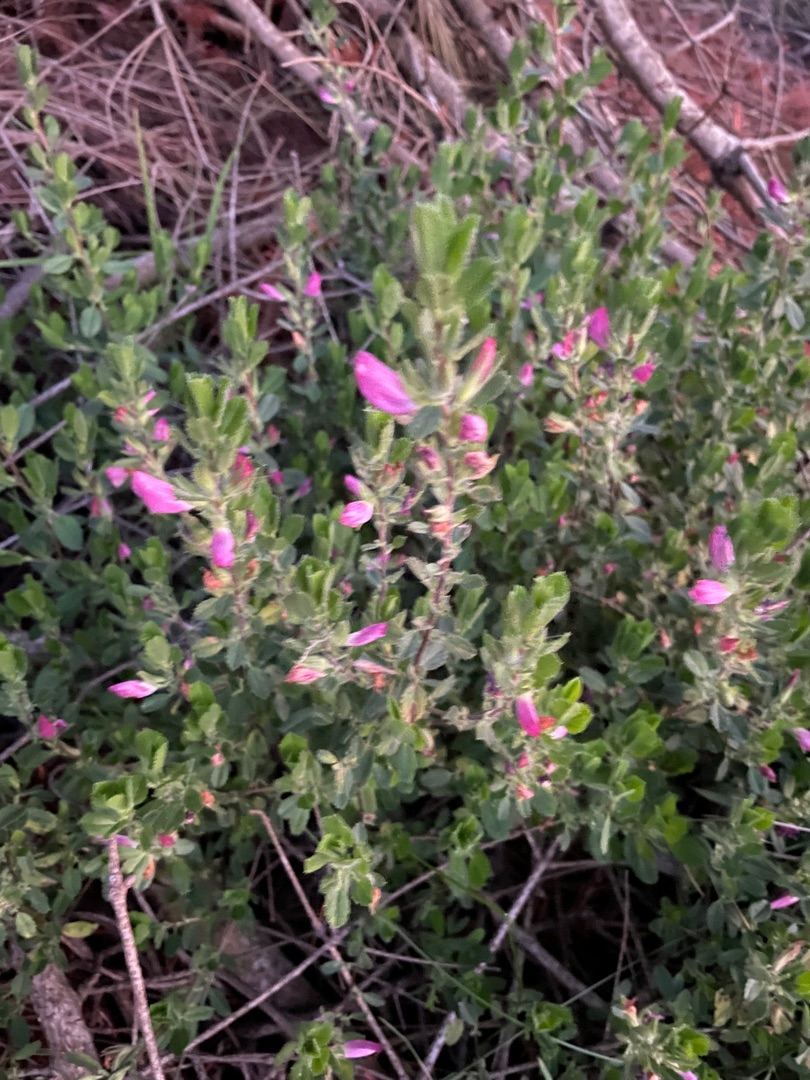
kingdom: Plantae
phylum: Tracheophyta
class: Magnoliopsida
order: Fabales
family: Fabaceae
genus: Ononis
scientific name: Ononis spinosa
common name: Krageklo
